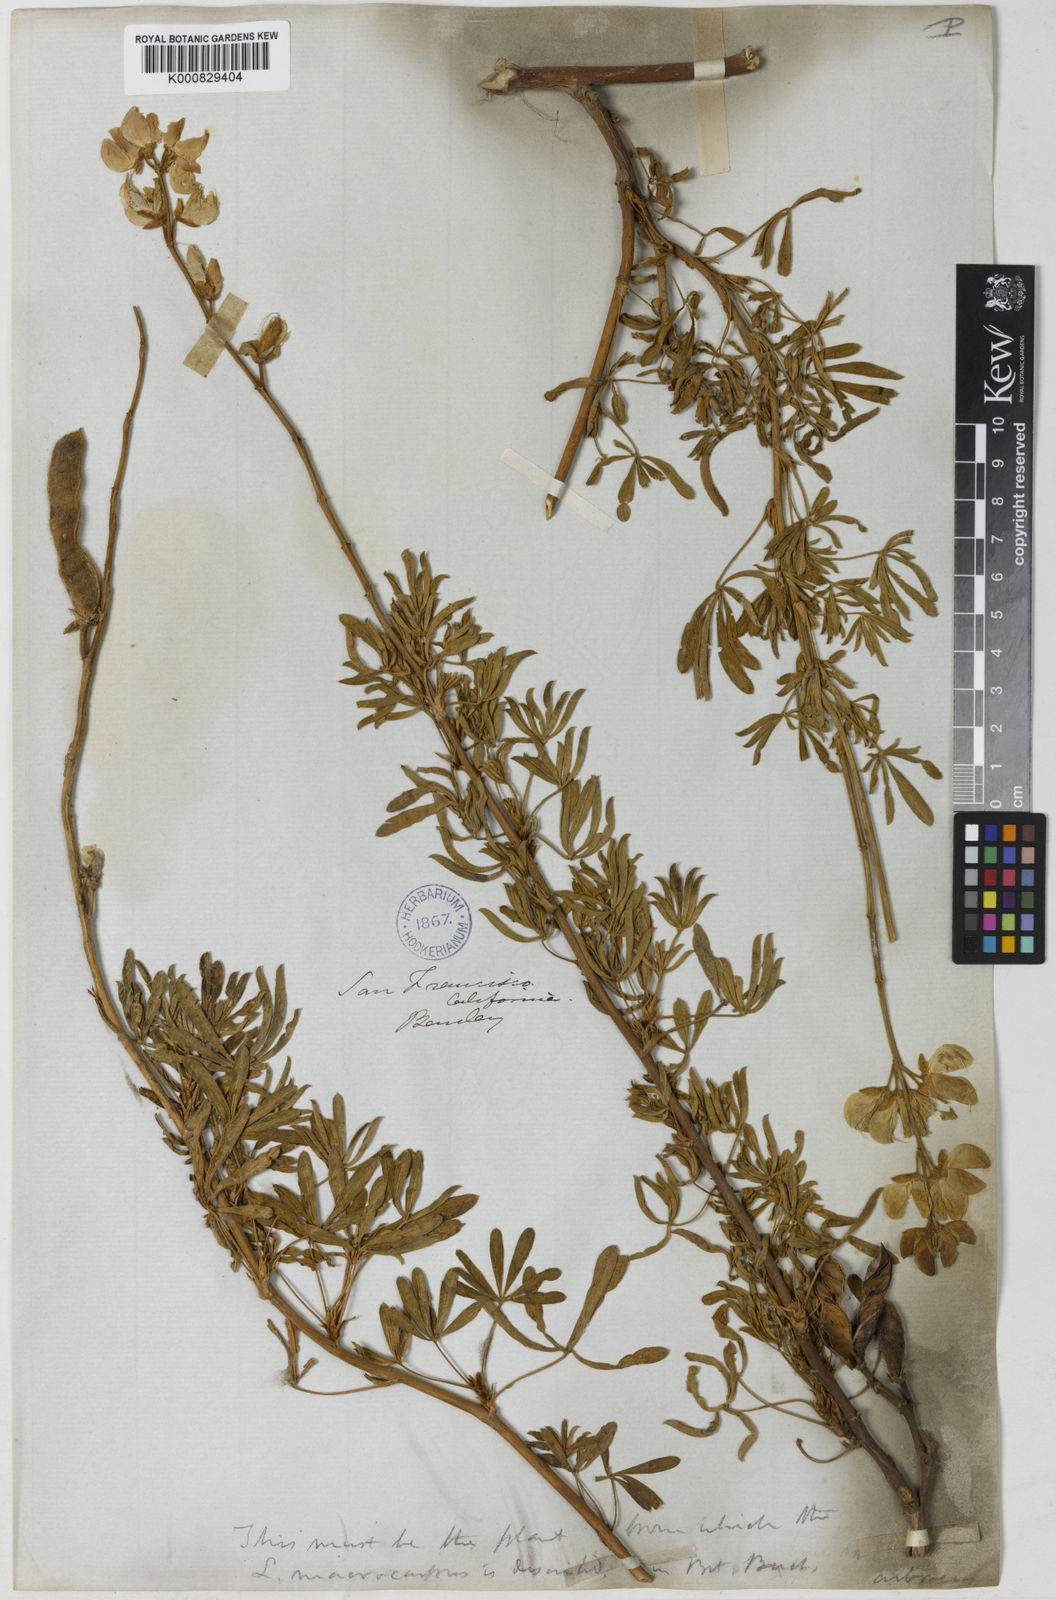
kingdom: Plantae
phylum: Tracheophyta
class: Magnoliopsida
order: Fabales
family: Fabaceae
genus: Lupinus
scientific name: Lupinus arboreus
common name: Yellow bush lupine
